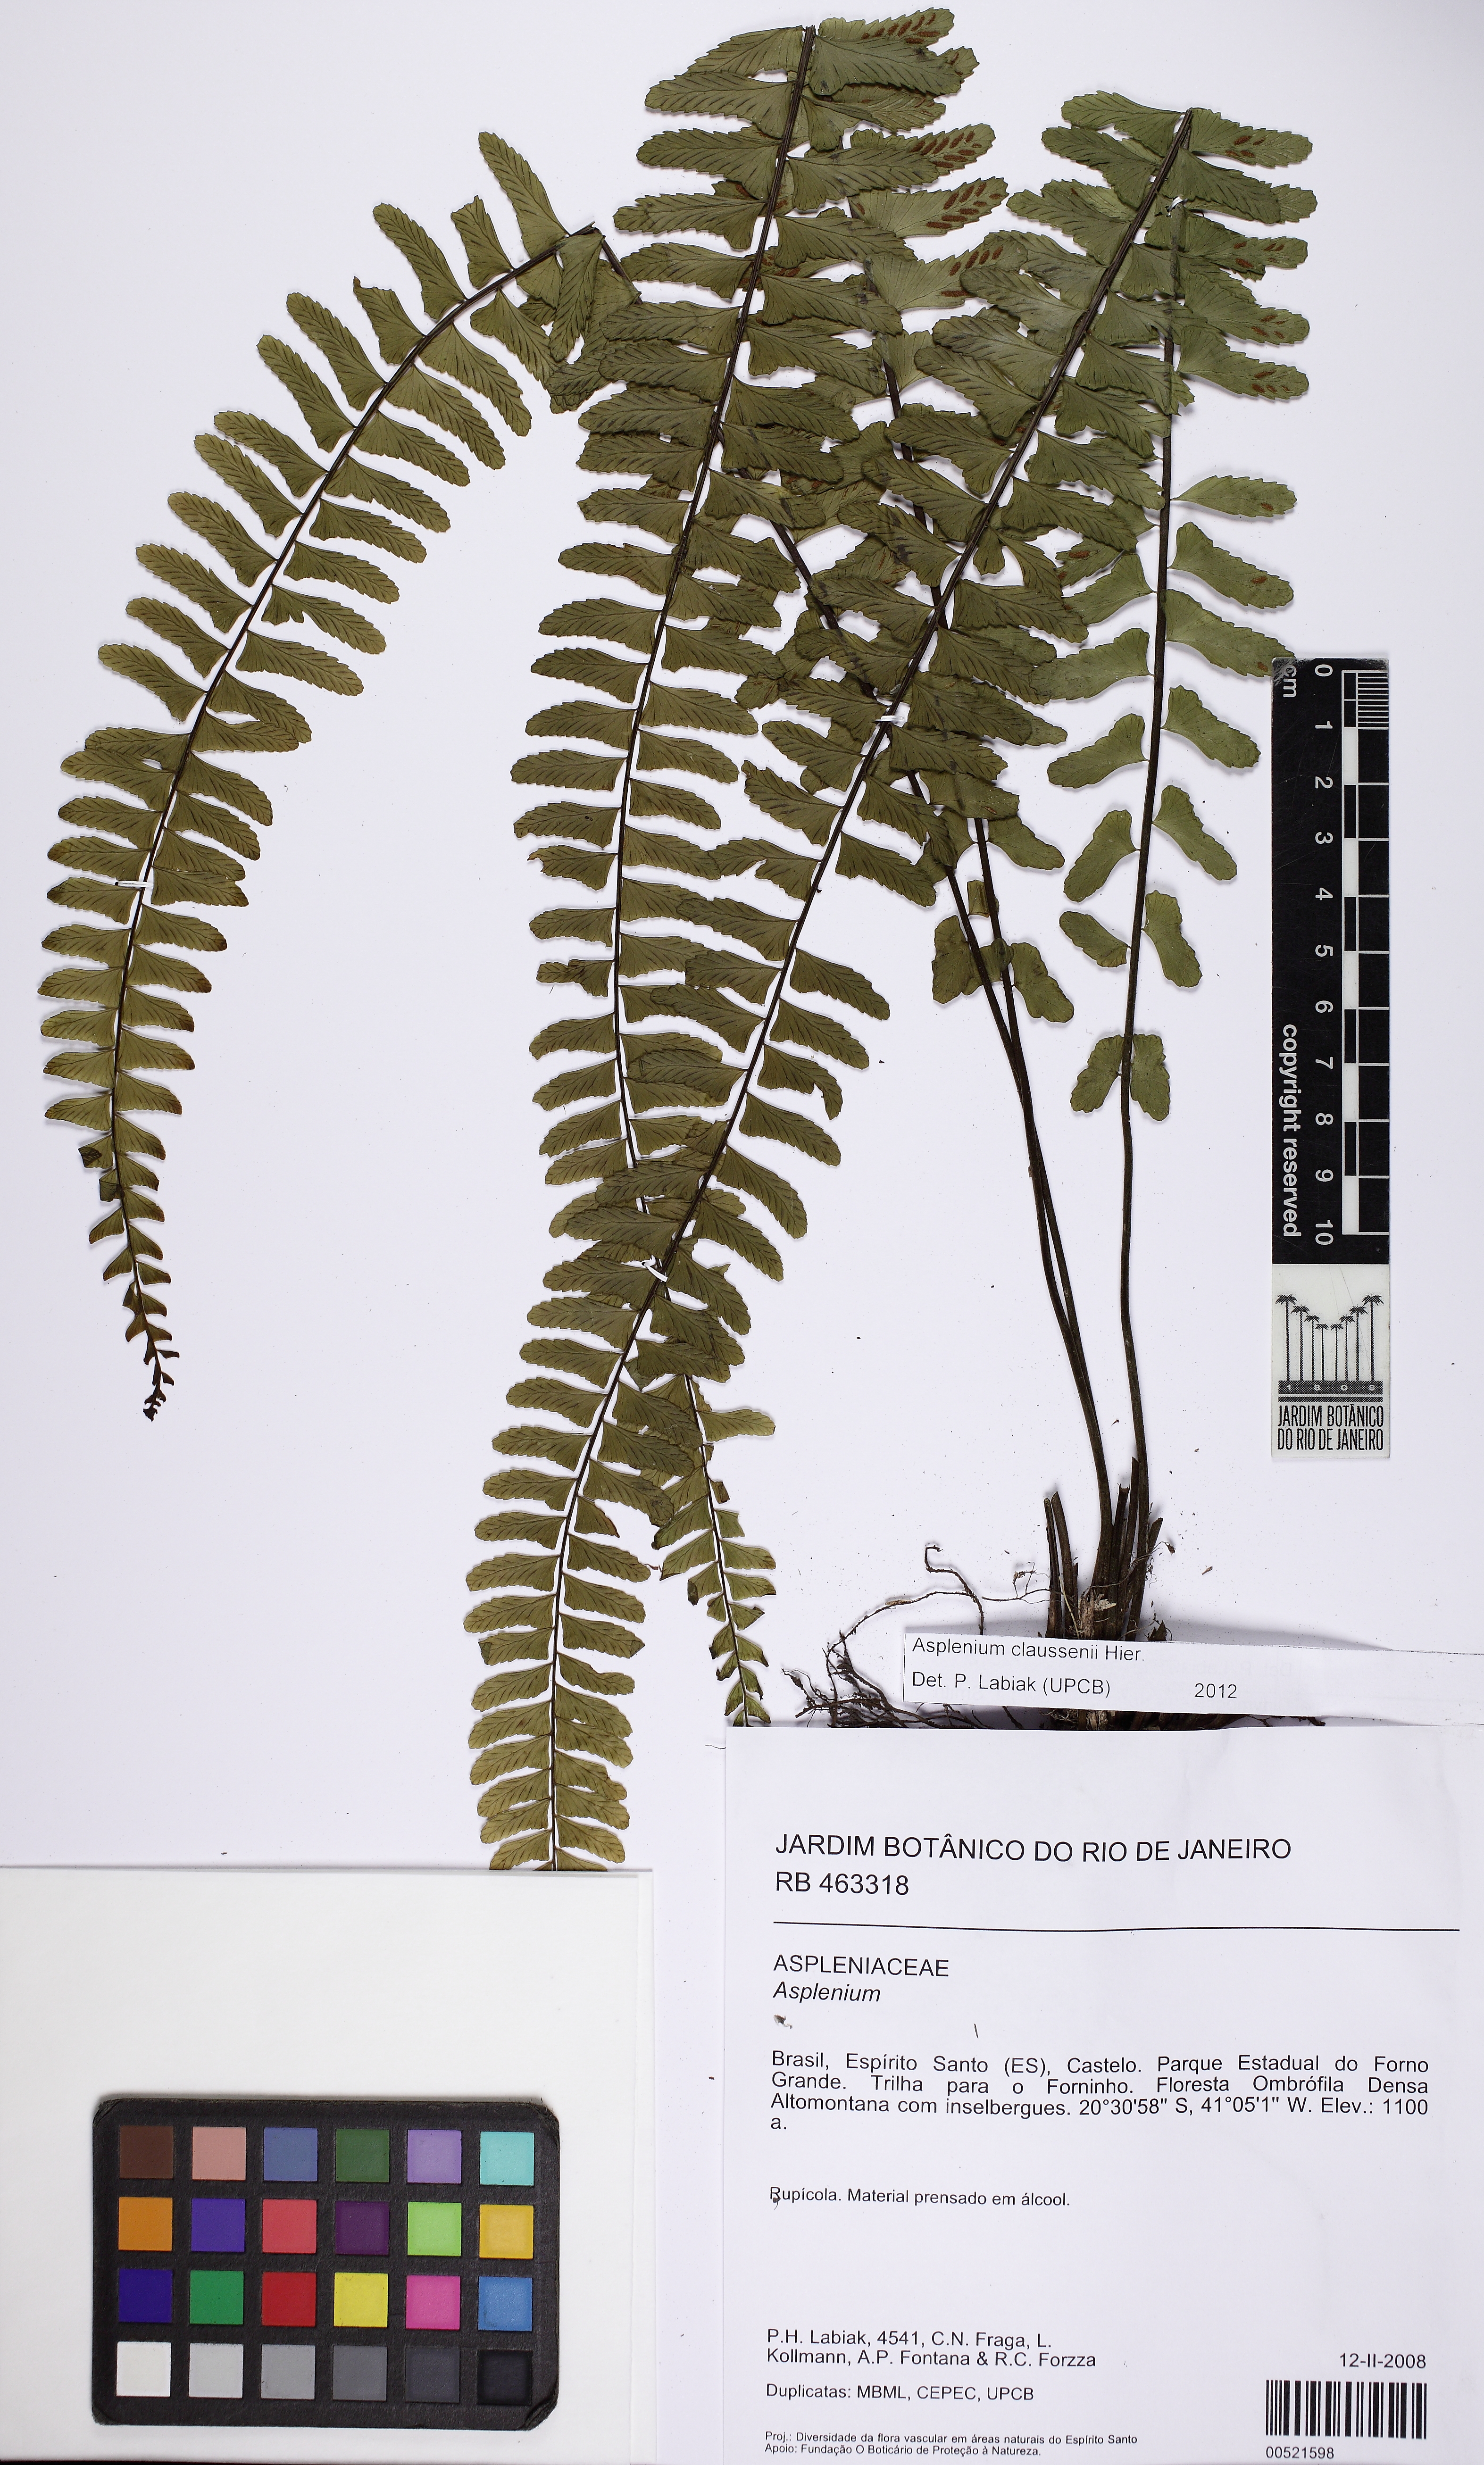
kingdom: Plantae
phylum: Tracheophyta
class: Polypodiopsida
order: Polypodiales
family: Aspleniaceae
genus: Asplenium
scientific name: Asplenium claussenii
